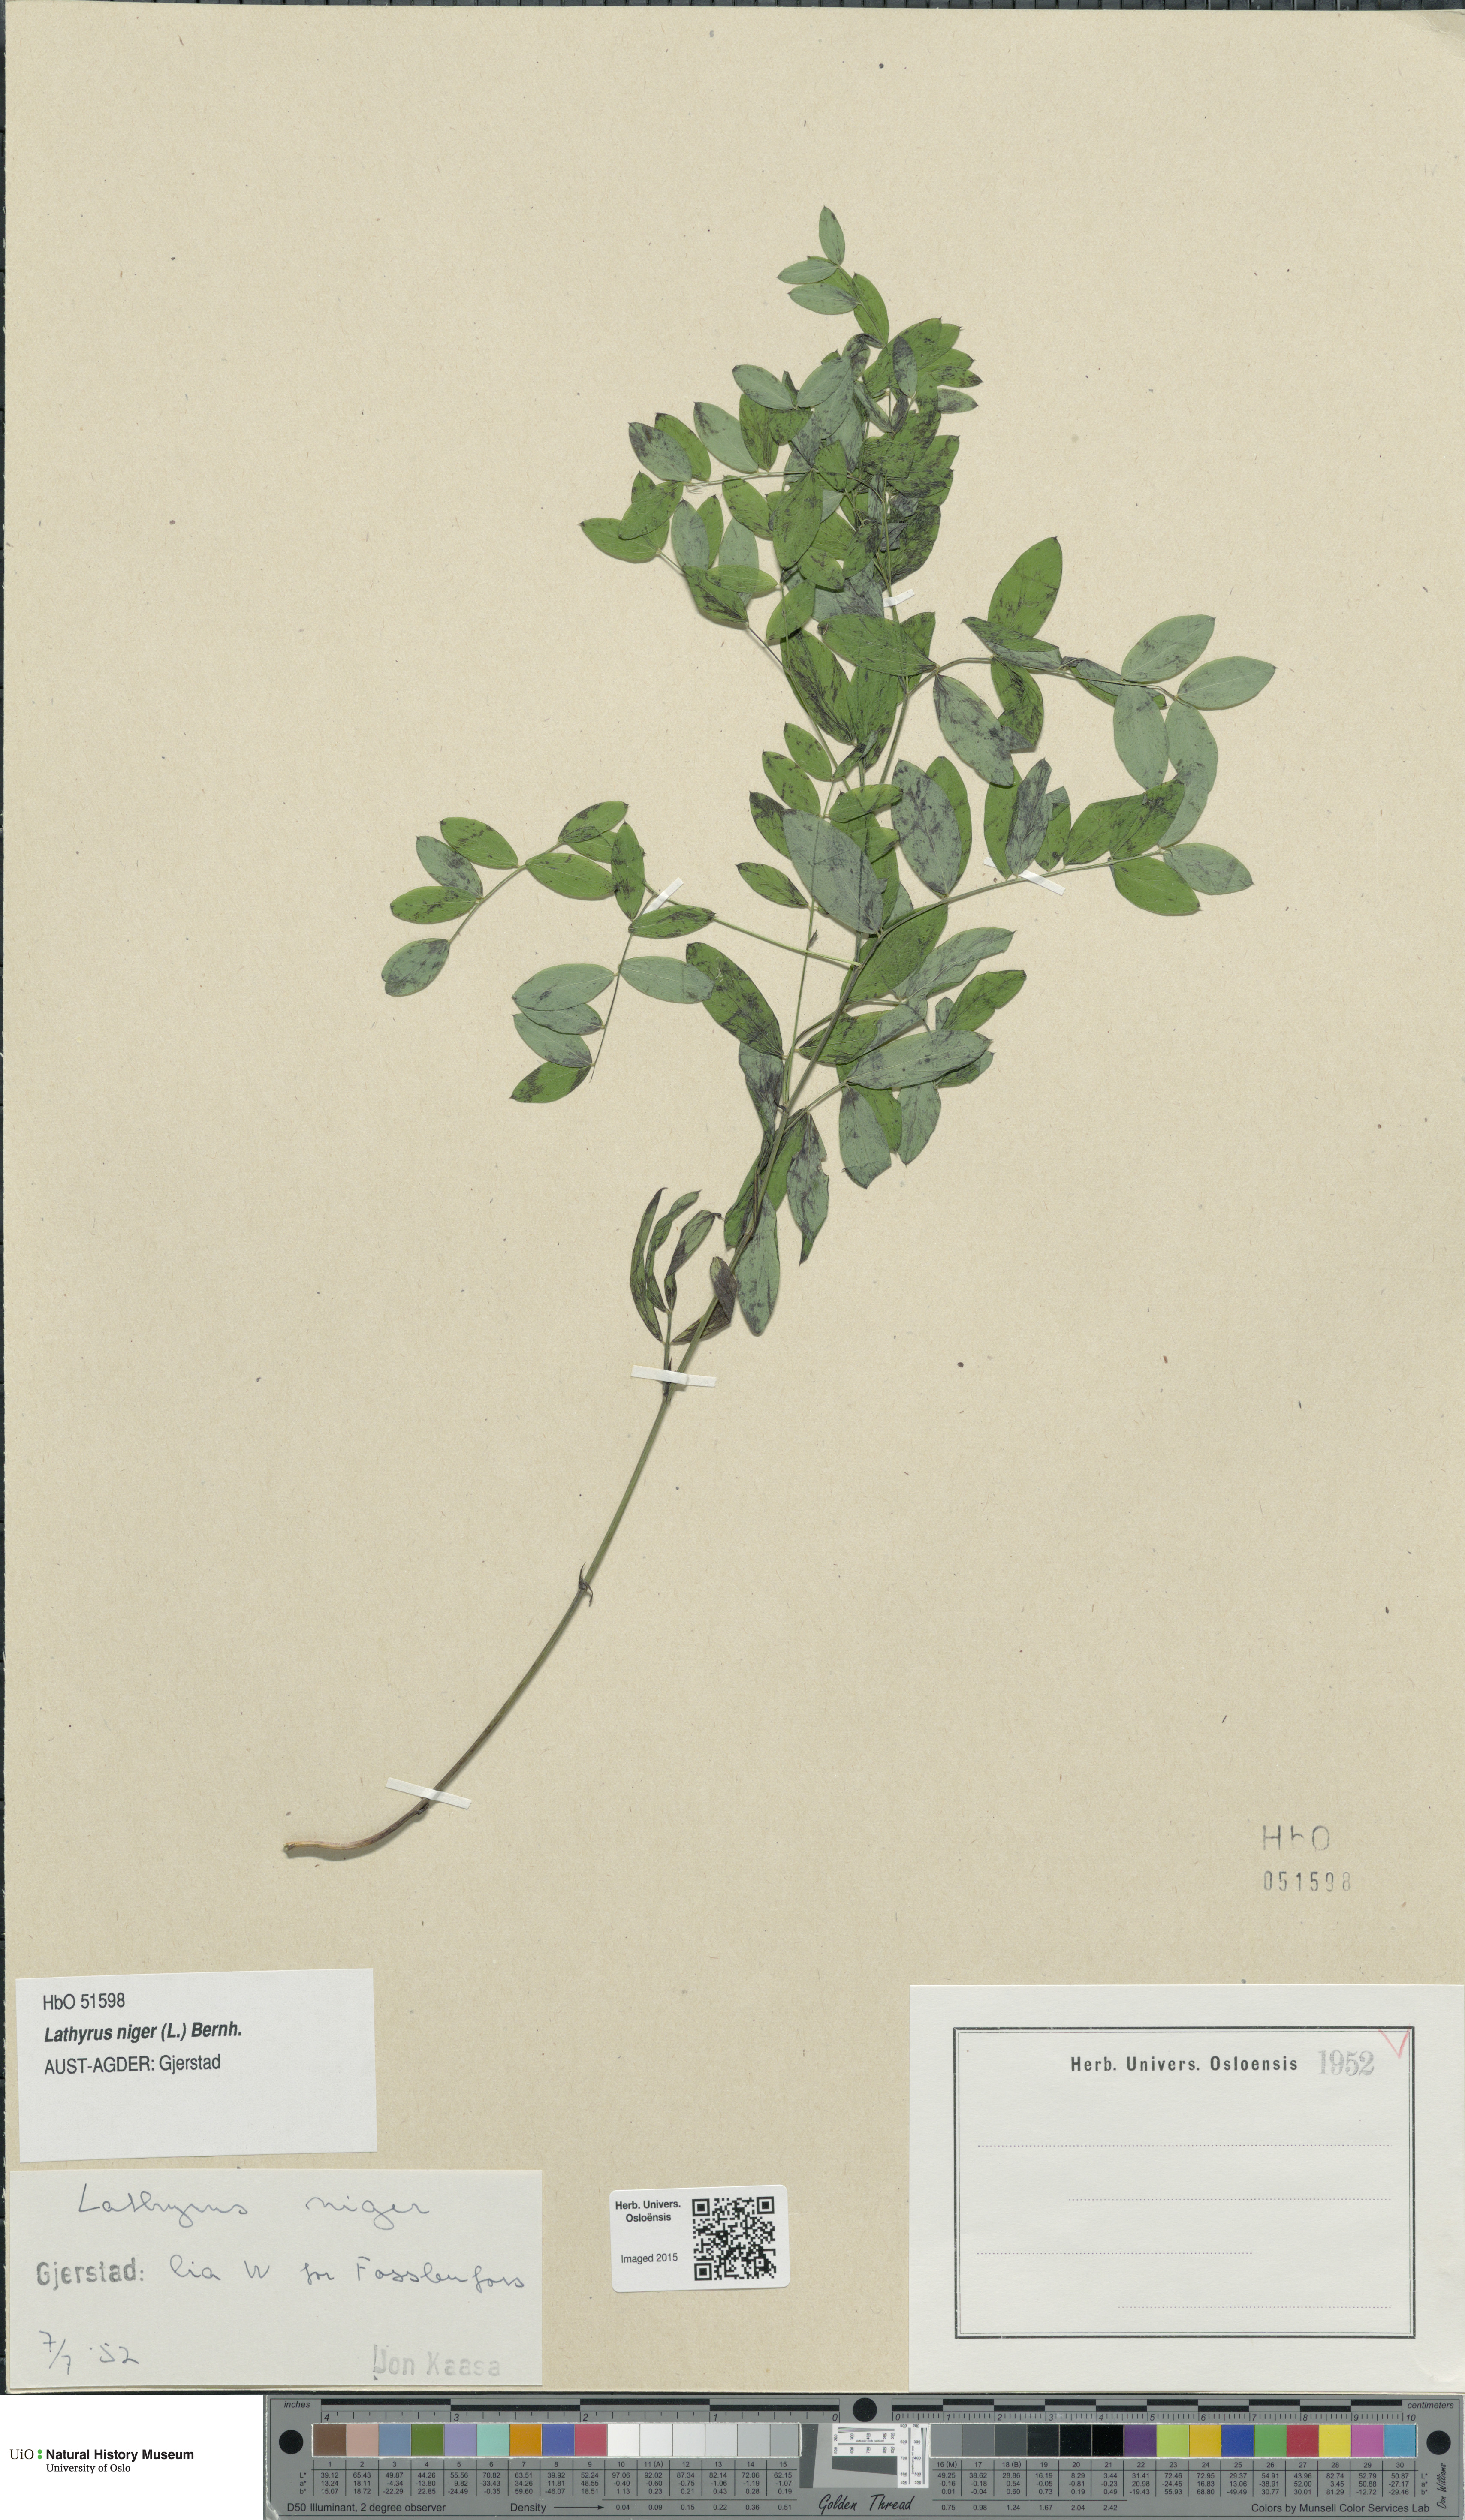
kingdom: Plantae
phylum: Tracheophyta
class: Magnoliopsida
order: Fabales
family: Fabaceae
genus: Lathyrus
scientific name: Lathyrus niger
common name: Black pea
